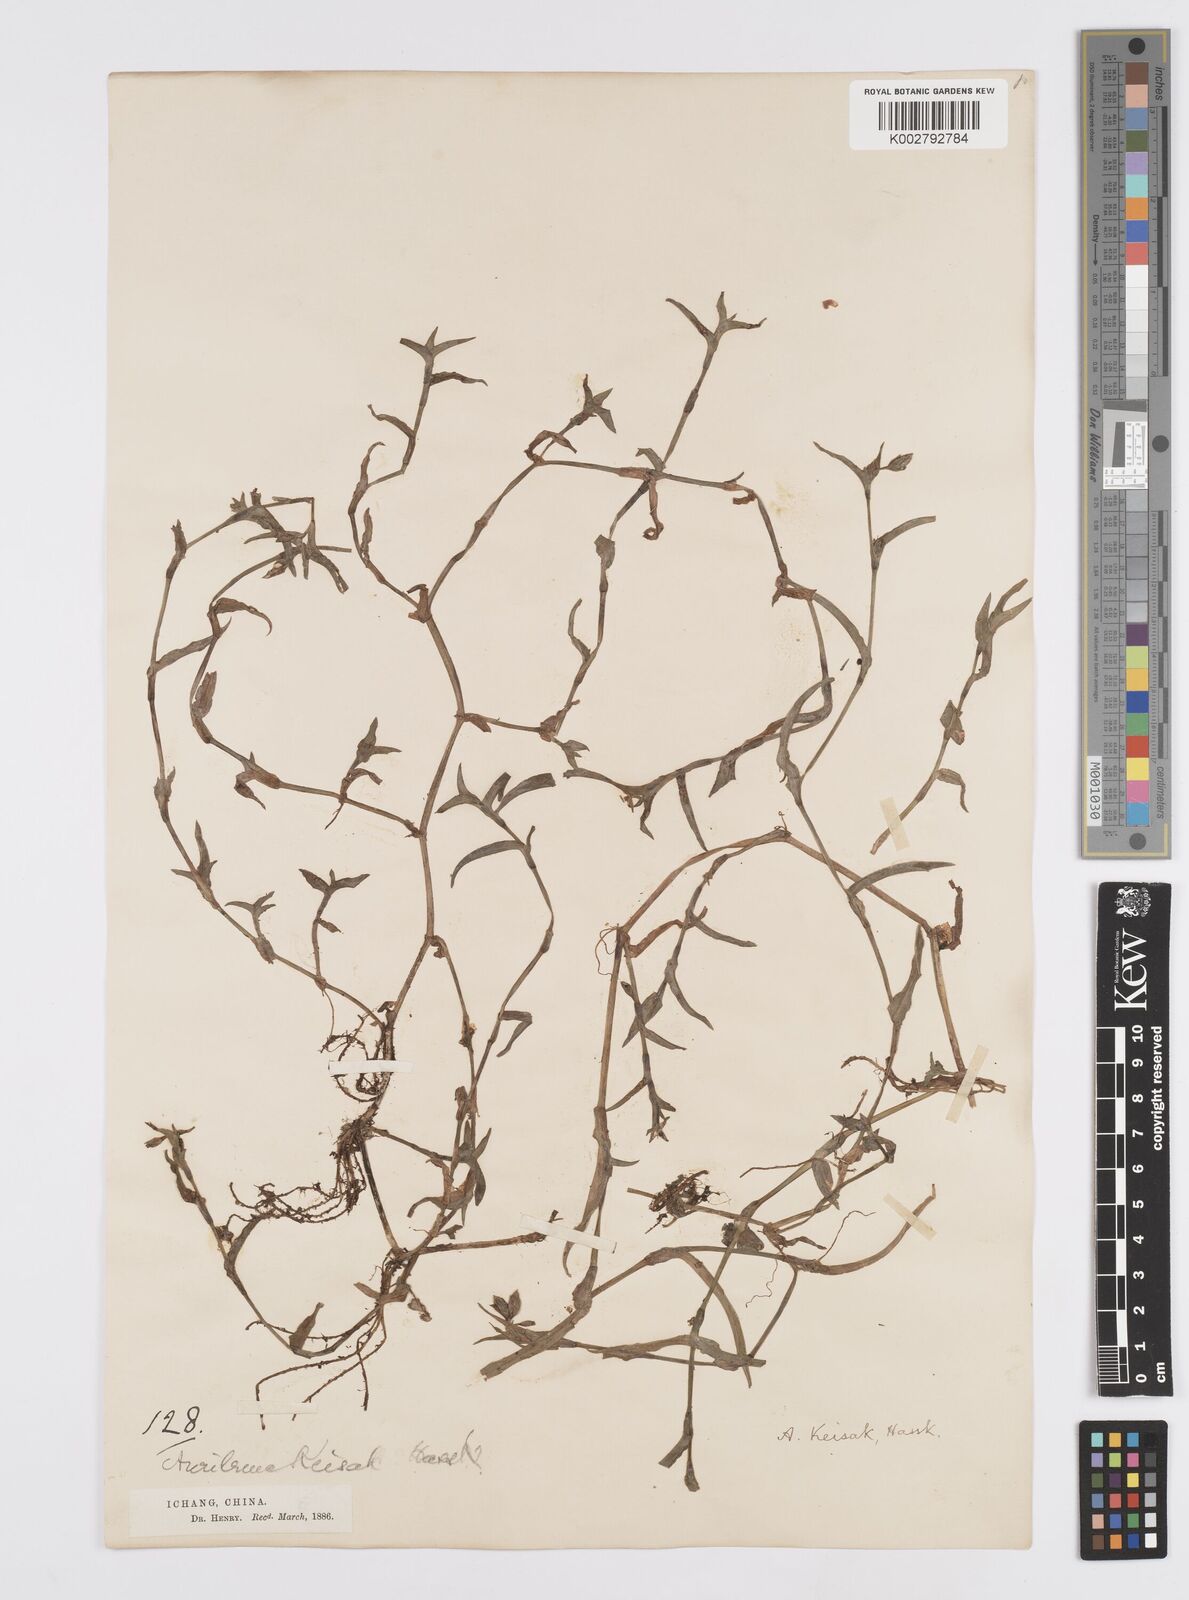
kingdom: Plantae
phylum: Tracheophyta
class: Liliopsida
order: Commelinales
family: Commelinaceae
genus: Murdannia
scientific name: Murdannia keisak
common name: Wartremoving herb
